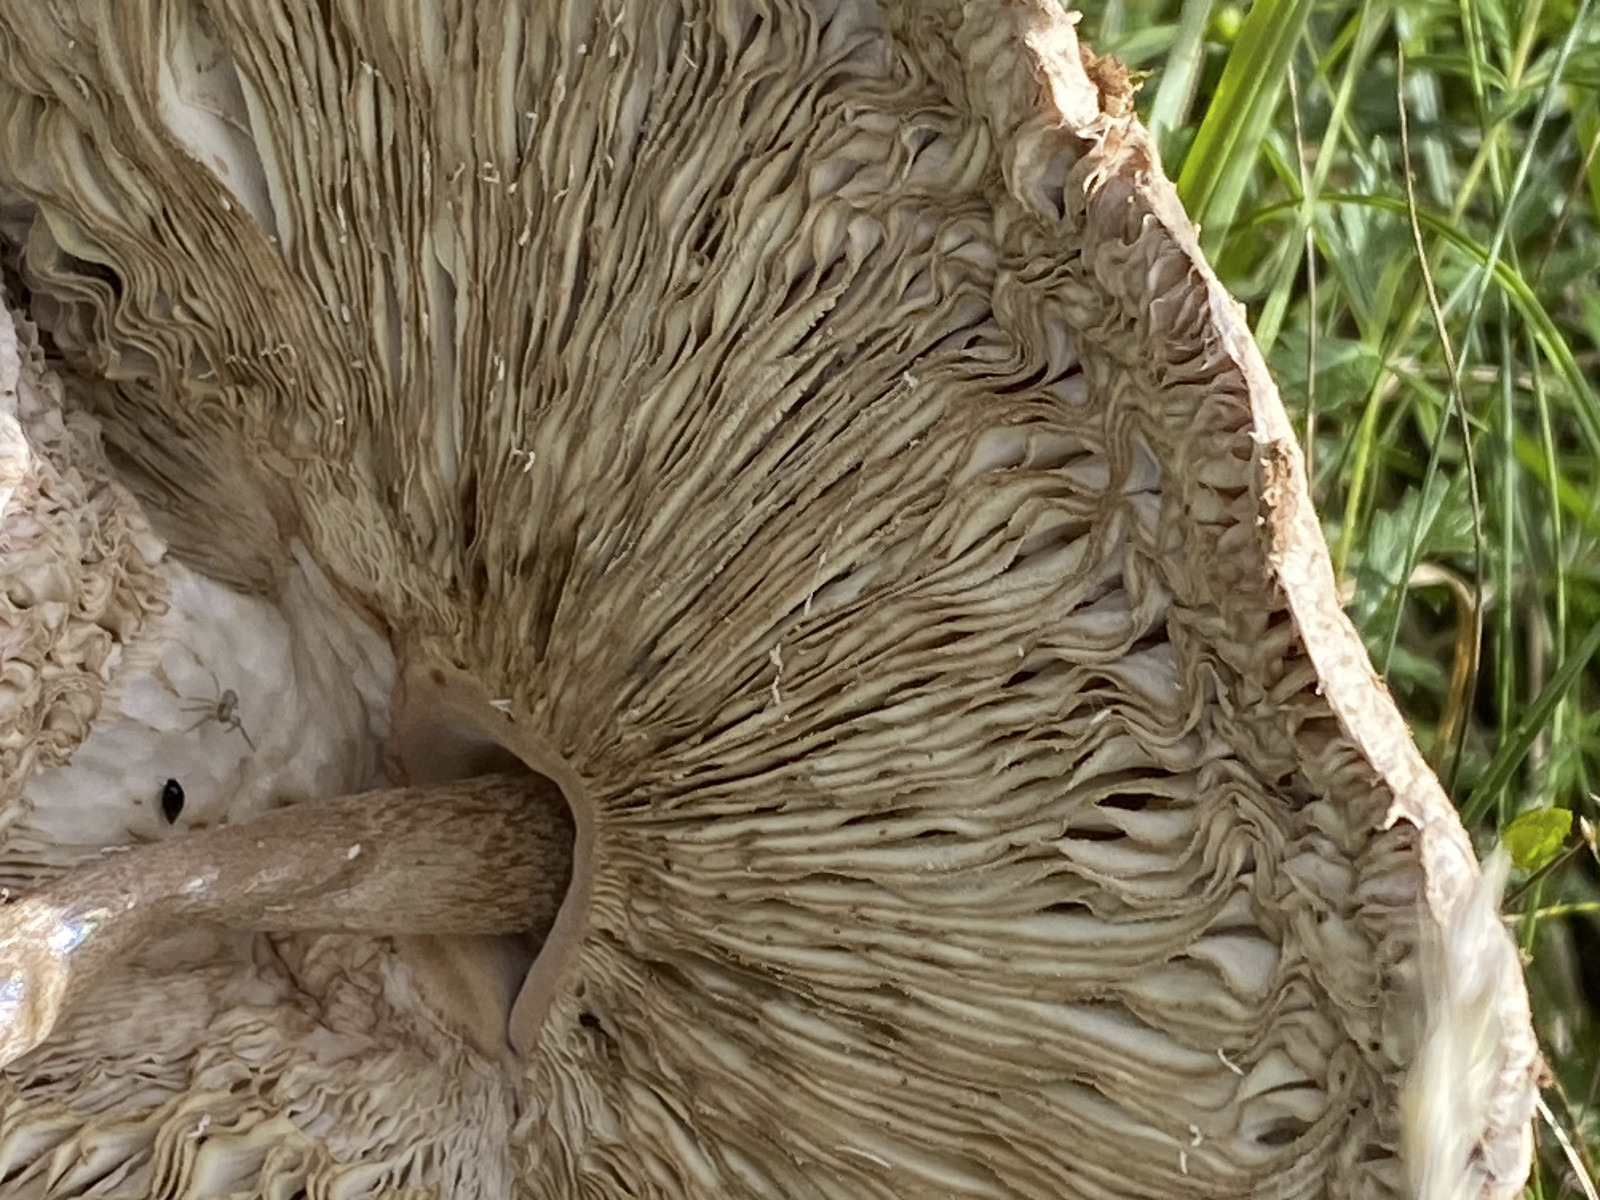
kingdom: Fungi
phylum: Basidiomycota
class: Agaricomycetes
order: Agaricales
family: Agaricaceae
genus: Macrolepiota
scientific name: Macrolepiota procera
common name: stor kæmpeparasolhat
